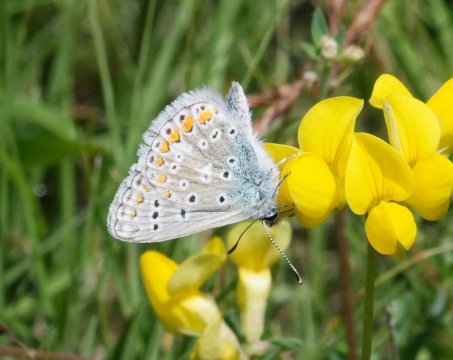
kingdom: Animalia
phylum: Arthropoda
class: Insecta
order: Lepidoptera
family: Lycaenidae
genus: Polyommatus
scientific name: Polyommatus icarus
